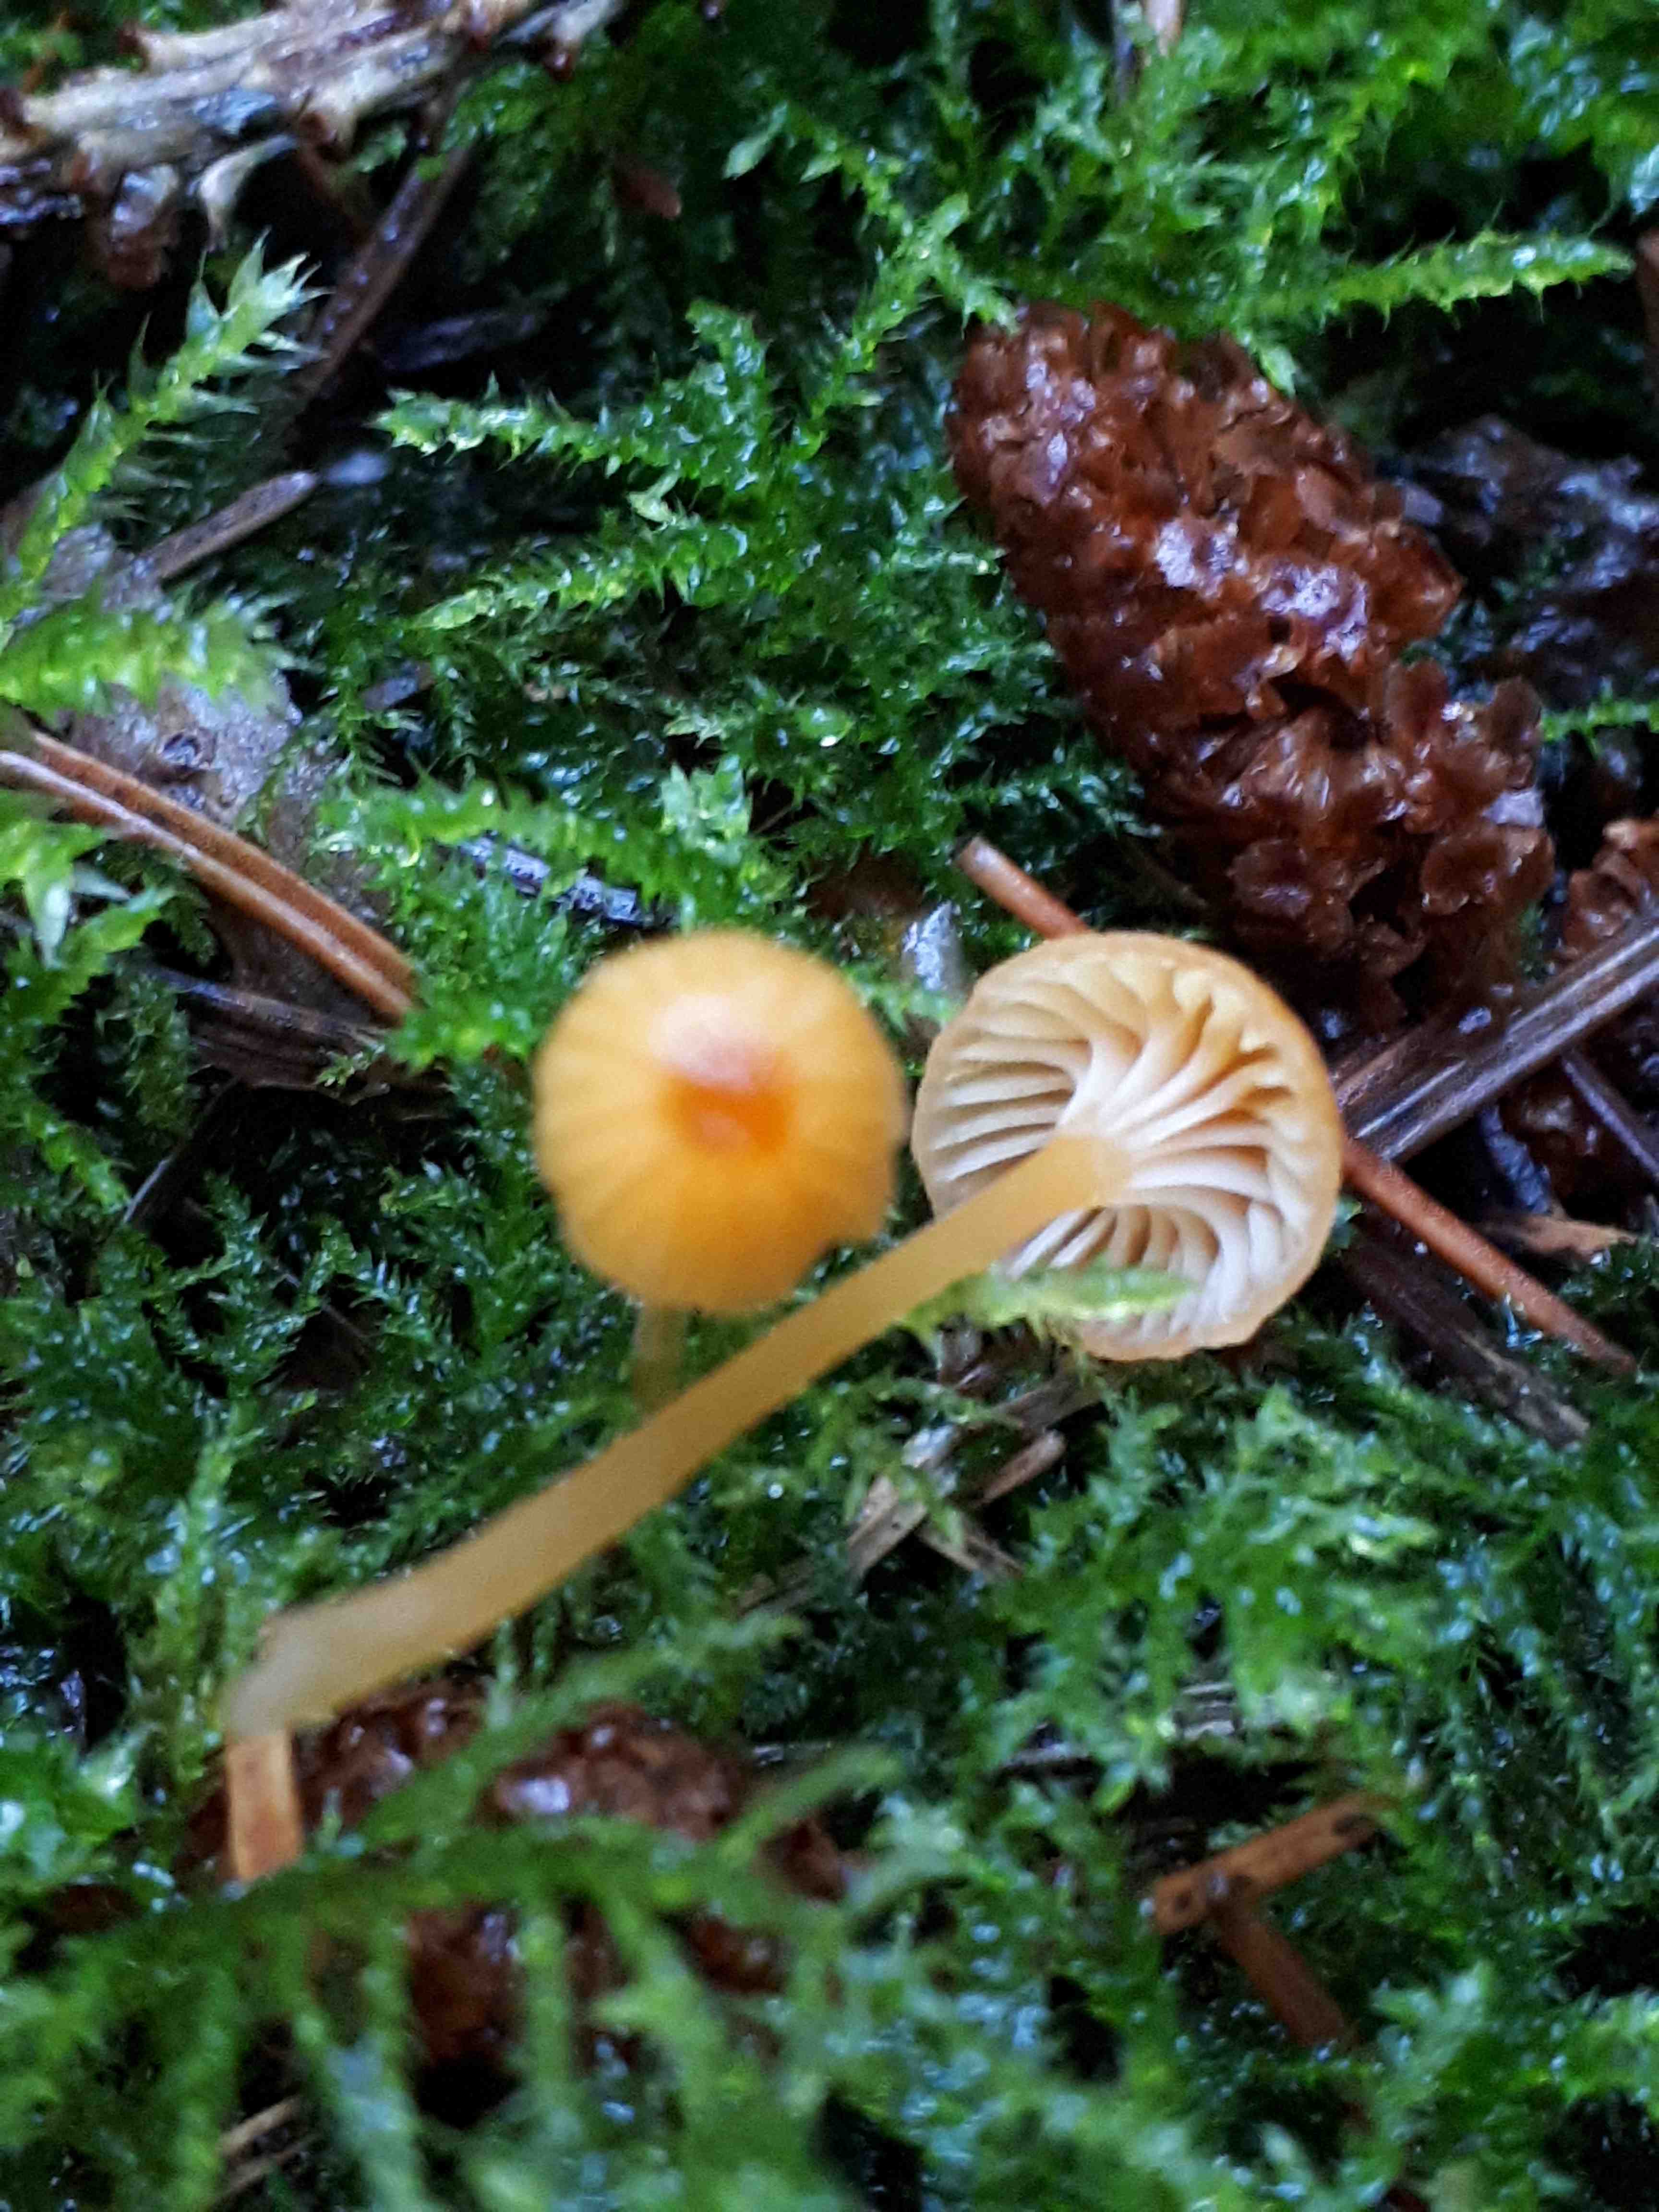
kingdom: Fungi
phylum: Basidiomycota
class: Agaricomycetes
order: Hymenochaetales
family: Rickenellaceae
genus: Rickenella
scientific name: Rickenella fibula
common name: orange mosnavlehat
